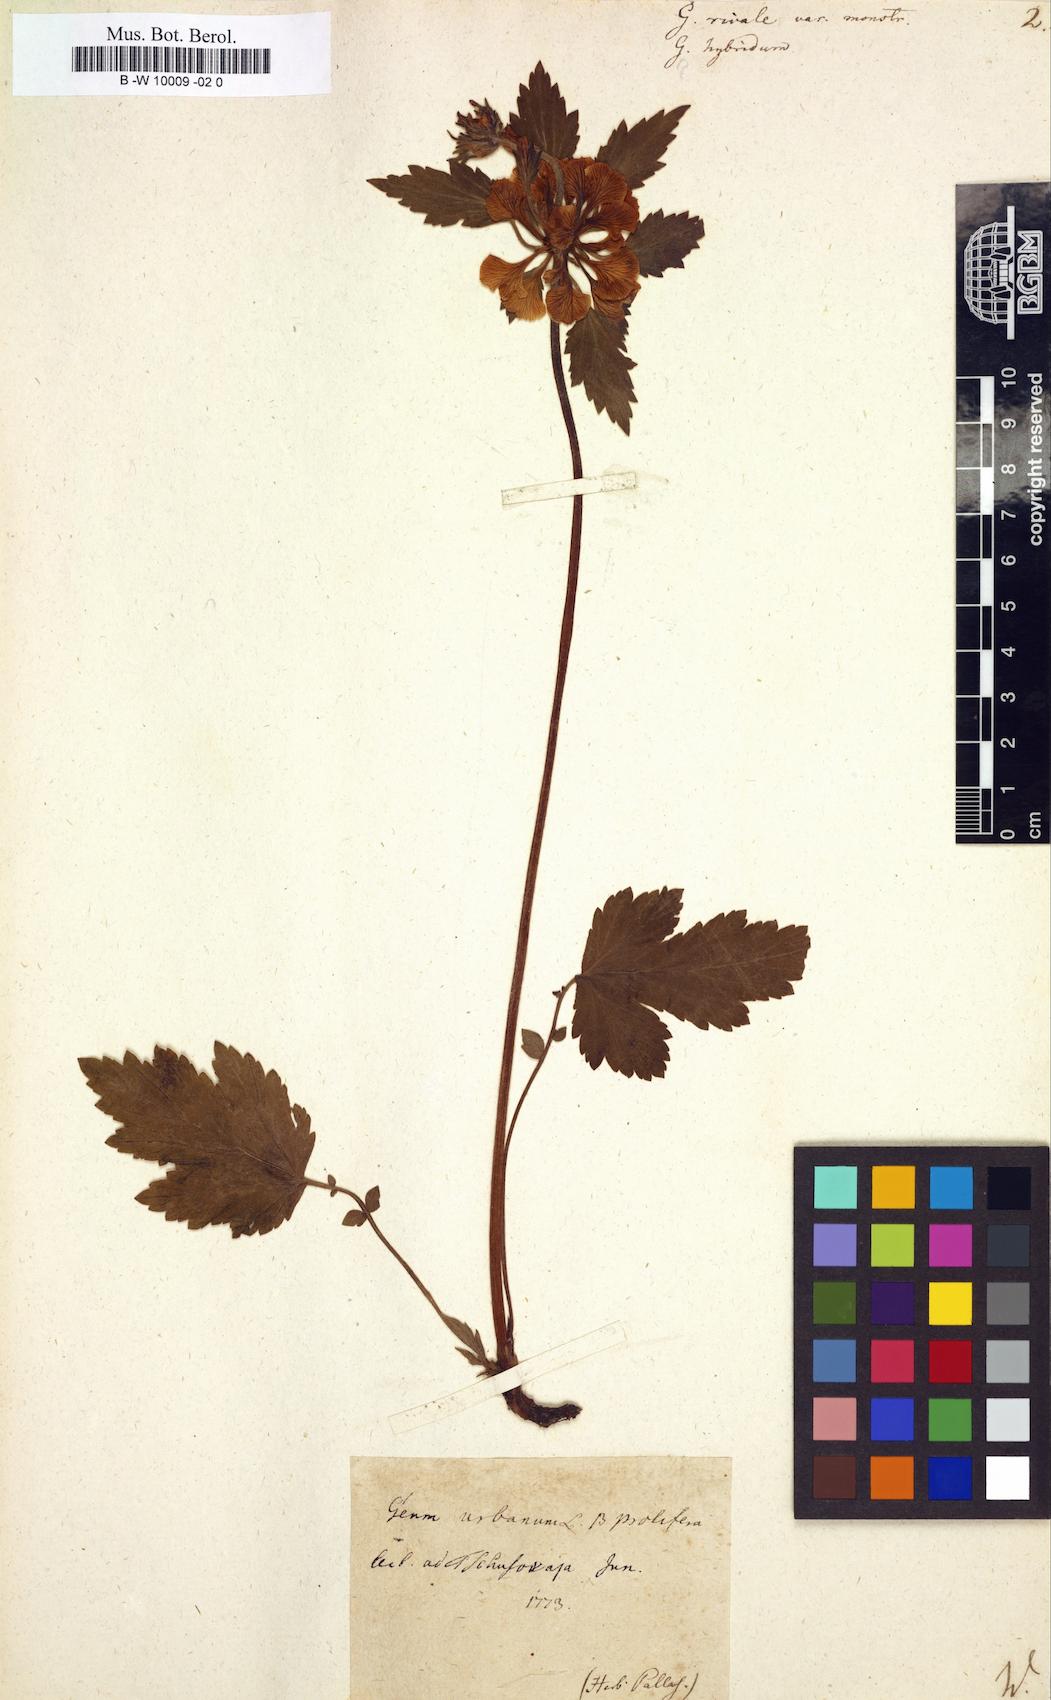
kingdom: Plantae
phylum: Tracheophyta
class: Magnoliopsida
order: Rosales
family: Rosaceae
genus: Geum
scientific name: Geum rivale
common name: Water avens
